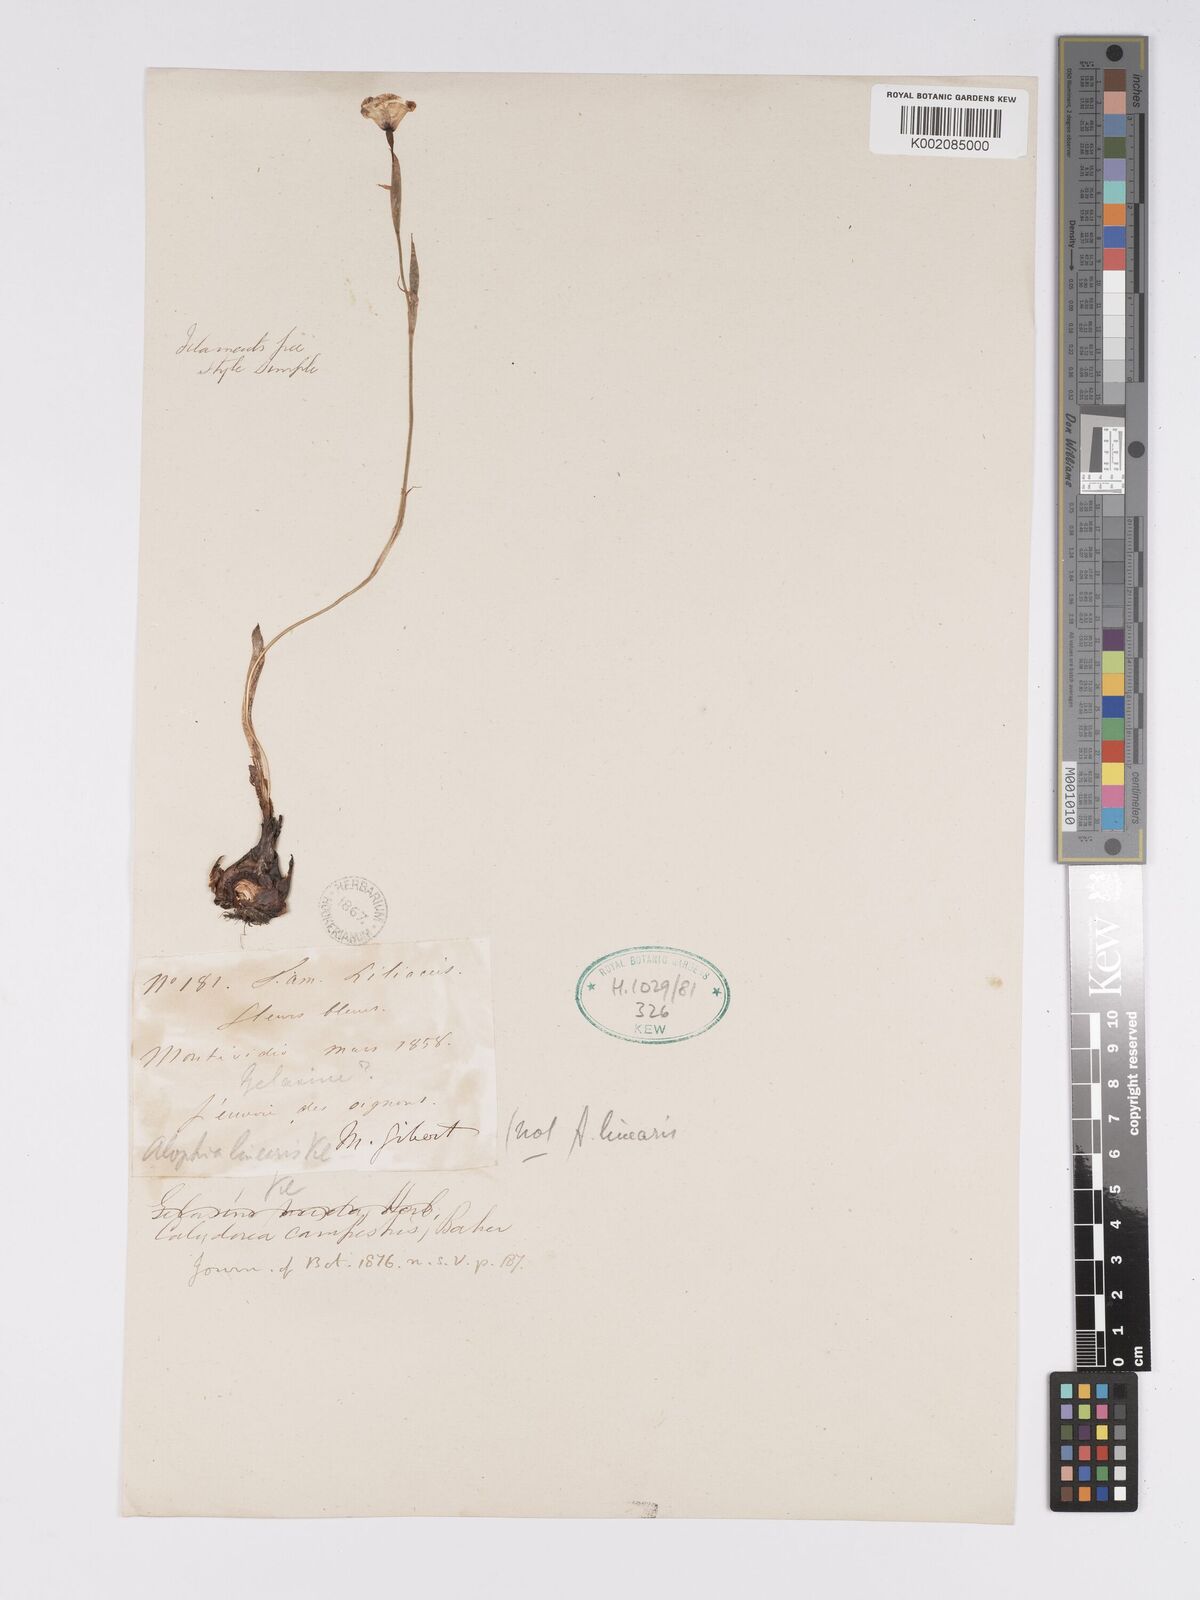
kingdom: Plantae
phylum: Tracheophyta
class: Liliopsida
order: Asparagales
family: Iridaceae
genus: Calydorea
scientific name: Calydorea campestris
